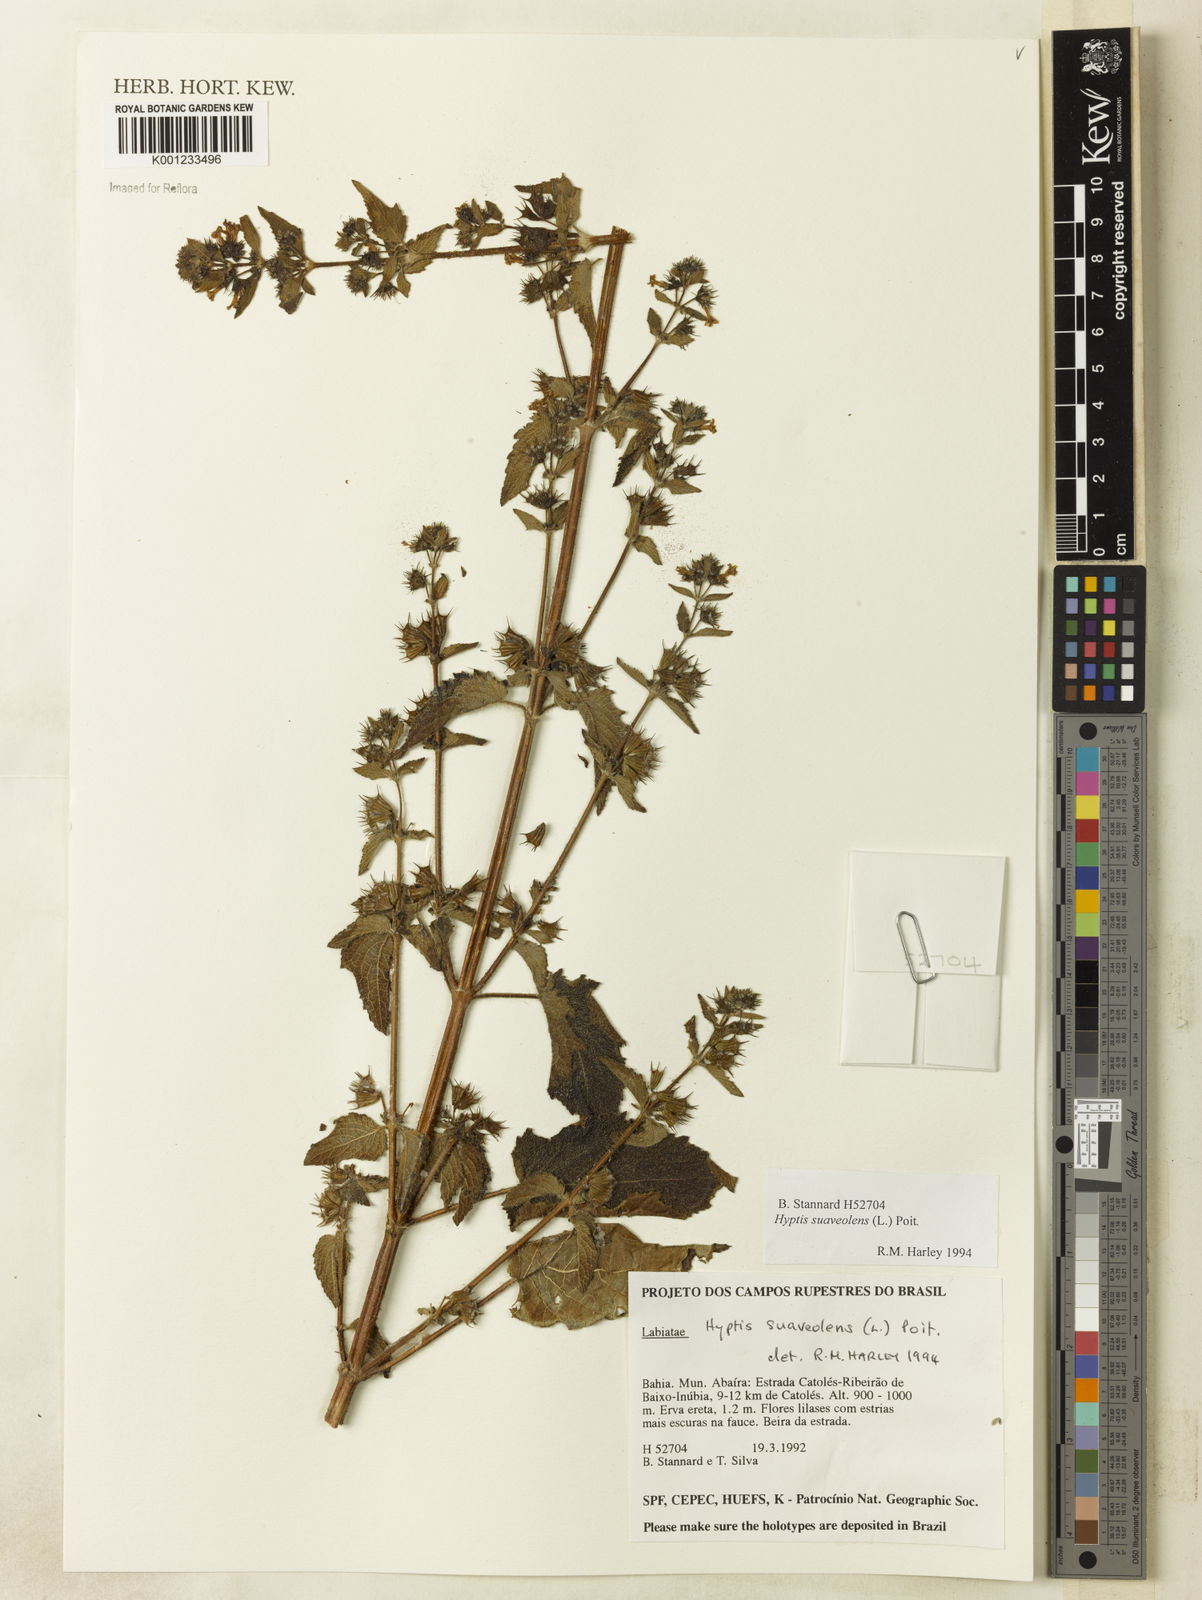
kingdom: Plantae
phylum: Tracheophyta
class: Magnoliopsida
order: Lamiales
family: Lamiaceae
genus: Mesosphaerum
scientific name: Mesosphaerum suaveolens
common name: Pignut
